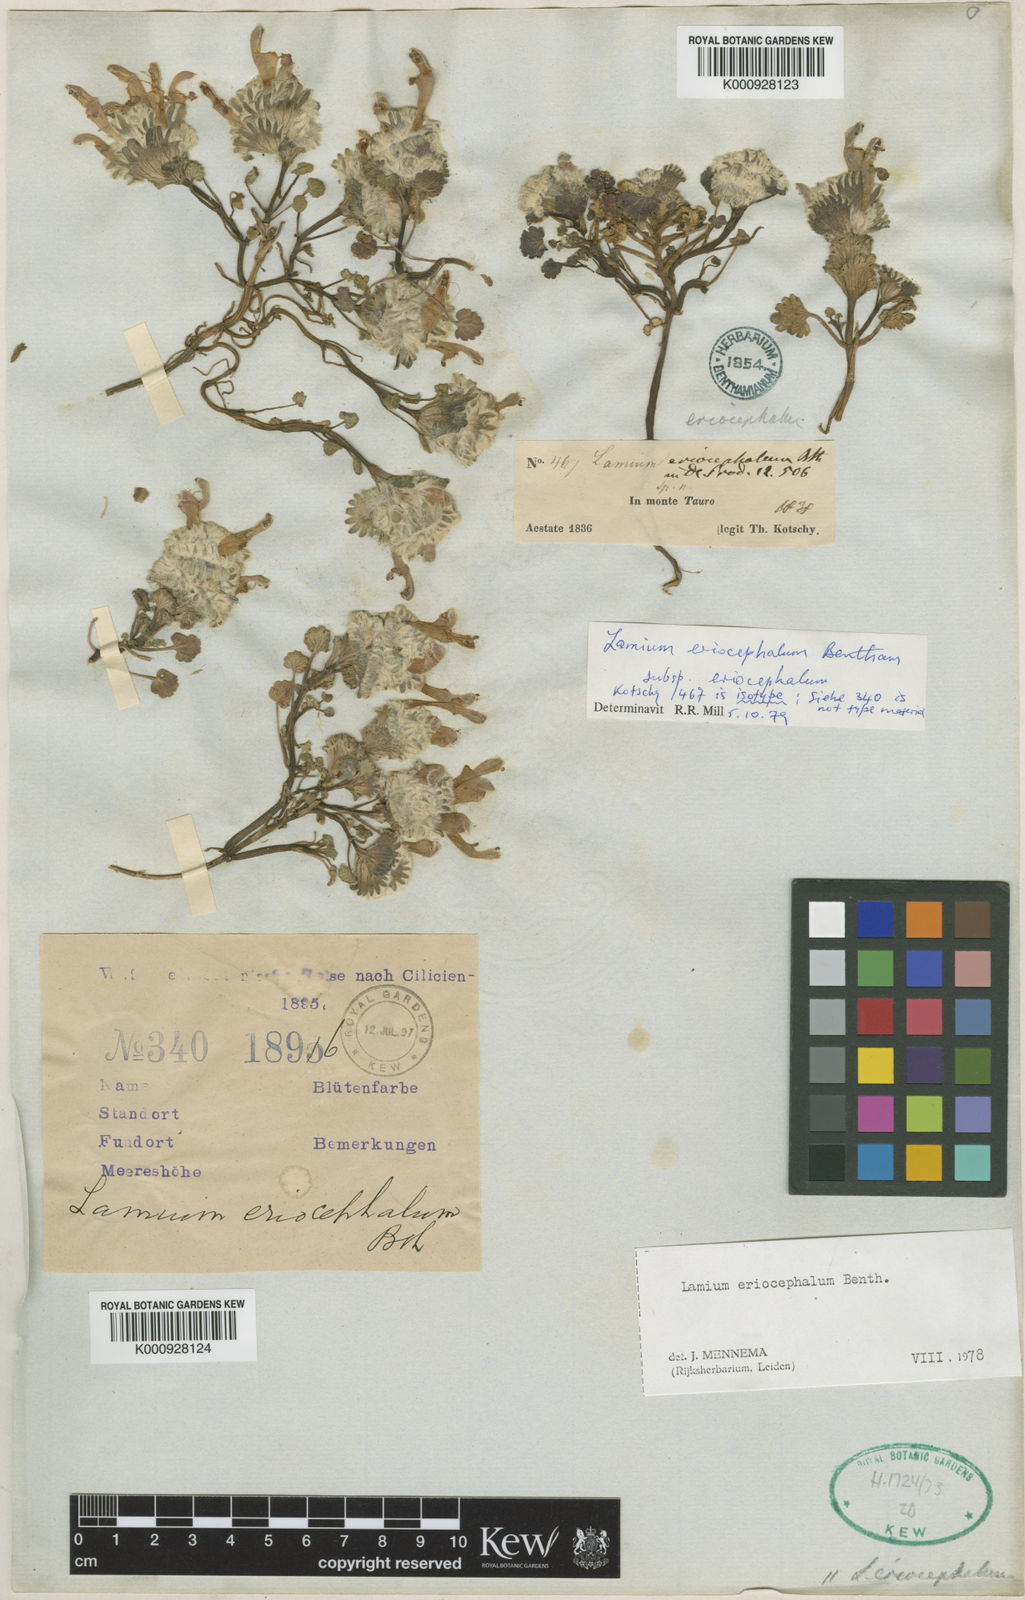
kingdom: Plantae
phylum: Tracheophyta
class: Magnoliopsida
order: Lamiales
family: Lamiaceae
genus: Lamium
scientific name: Lamium eriocephalum
